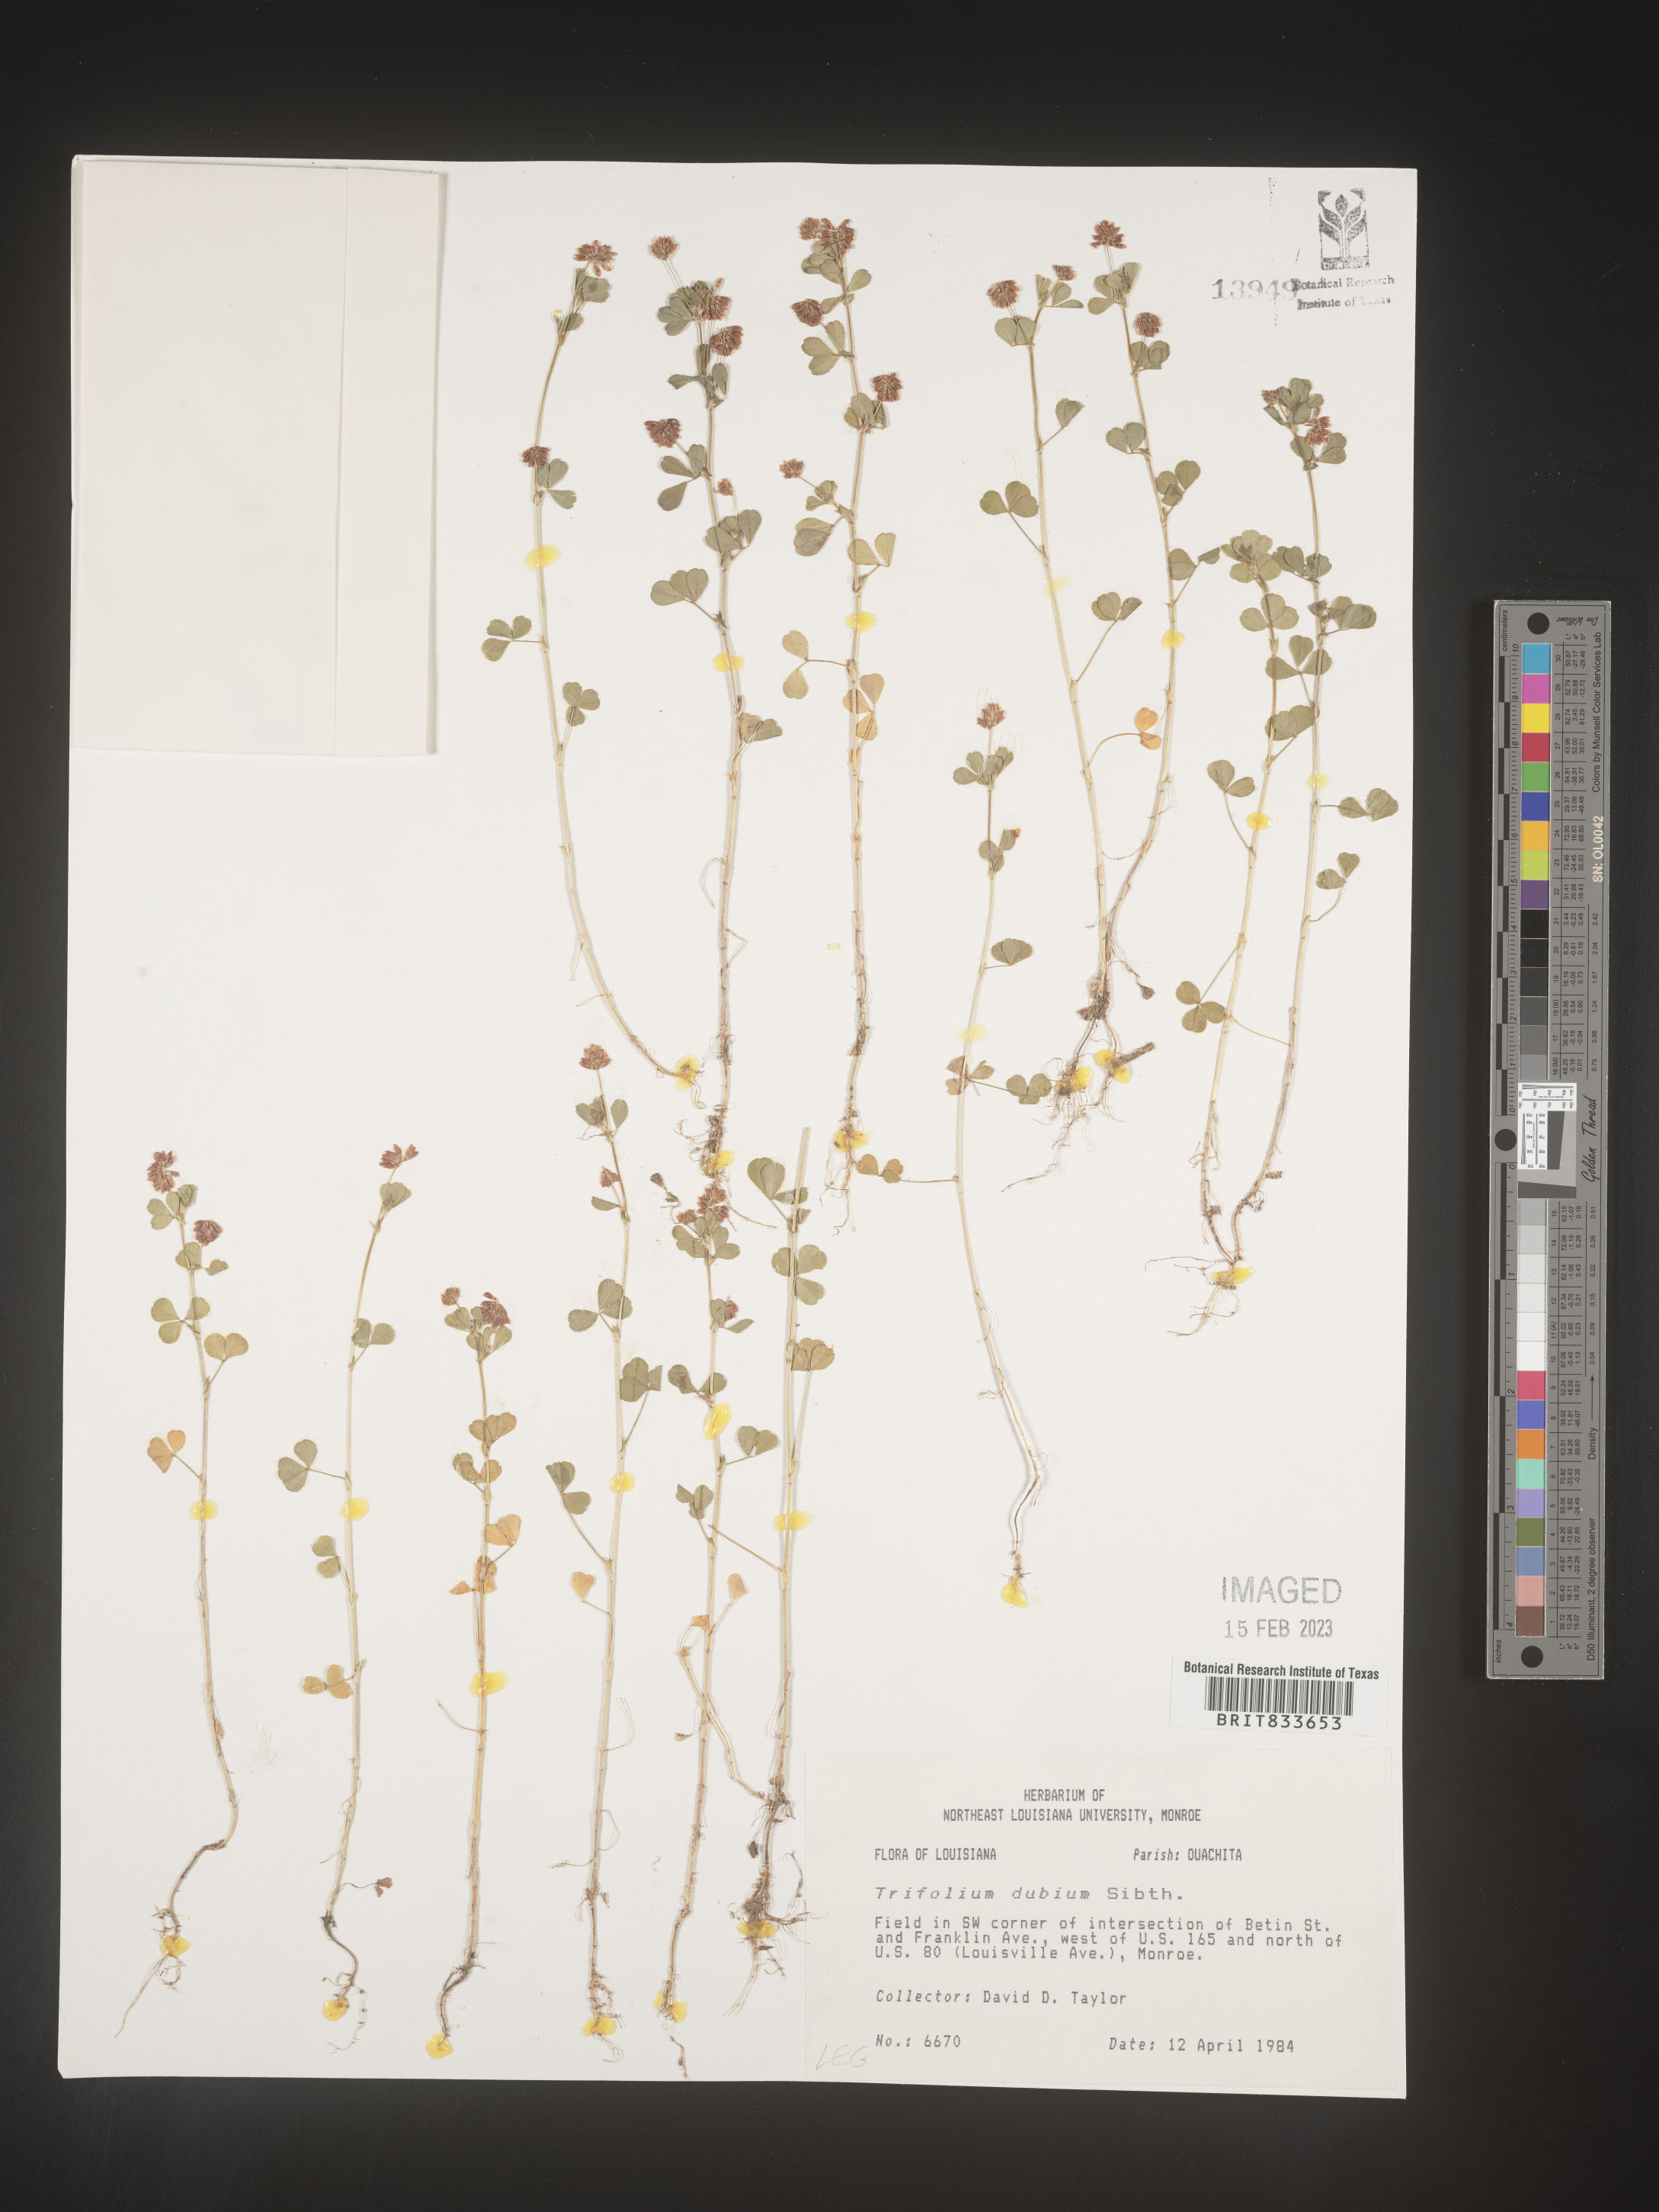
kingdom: Plantae
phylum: Tracheophyta
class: Magnoliopsida
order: Fabales
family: Fabaceae
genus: Trifolium
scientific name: Trifolium dubium
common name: Suckling clover
